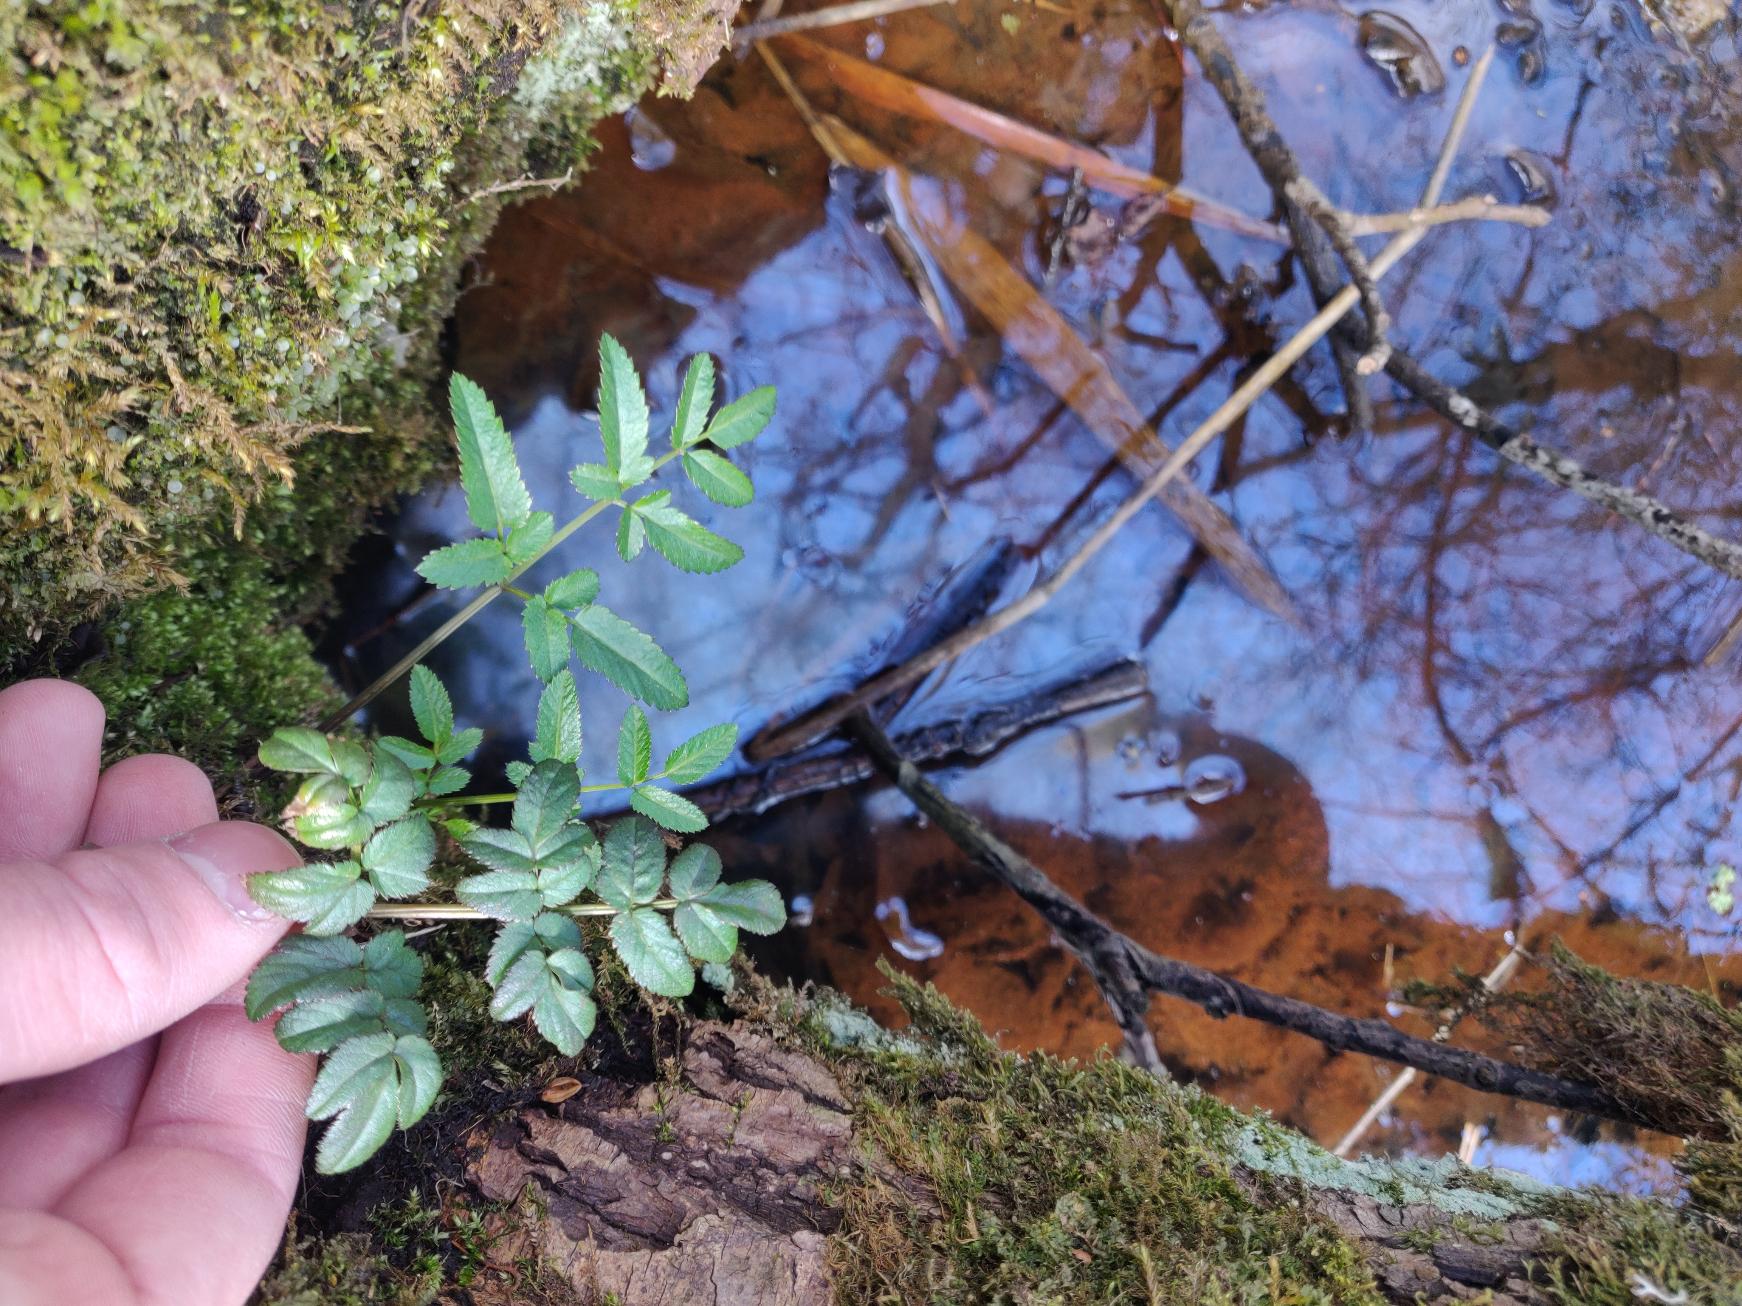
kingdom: Plantae
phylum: Tracheophyta
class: Magnoliopsida
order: Apiales
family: Apiaceae
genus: Angelica
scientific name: Angelica sylvestris
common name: Angelik
